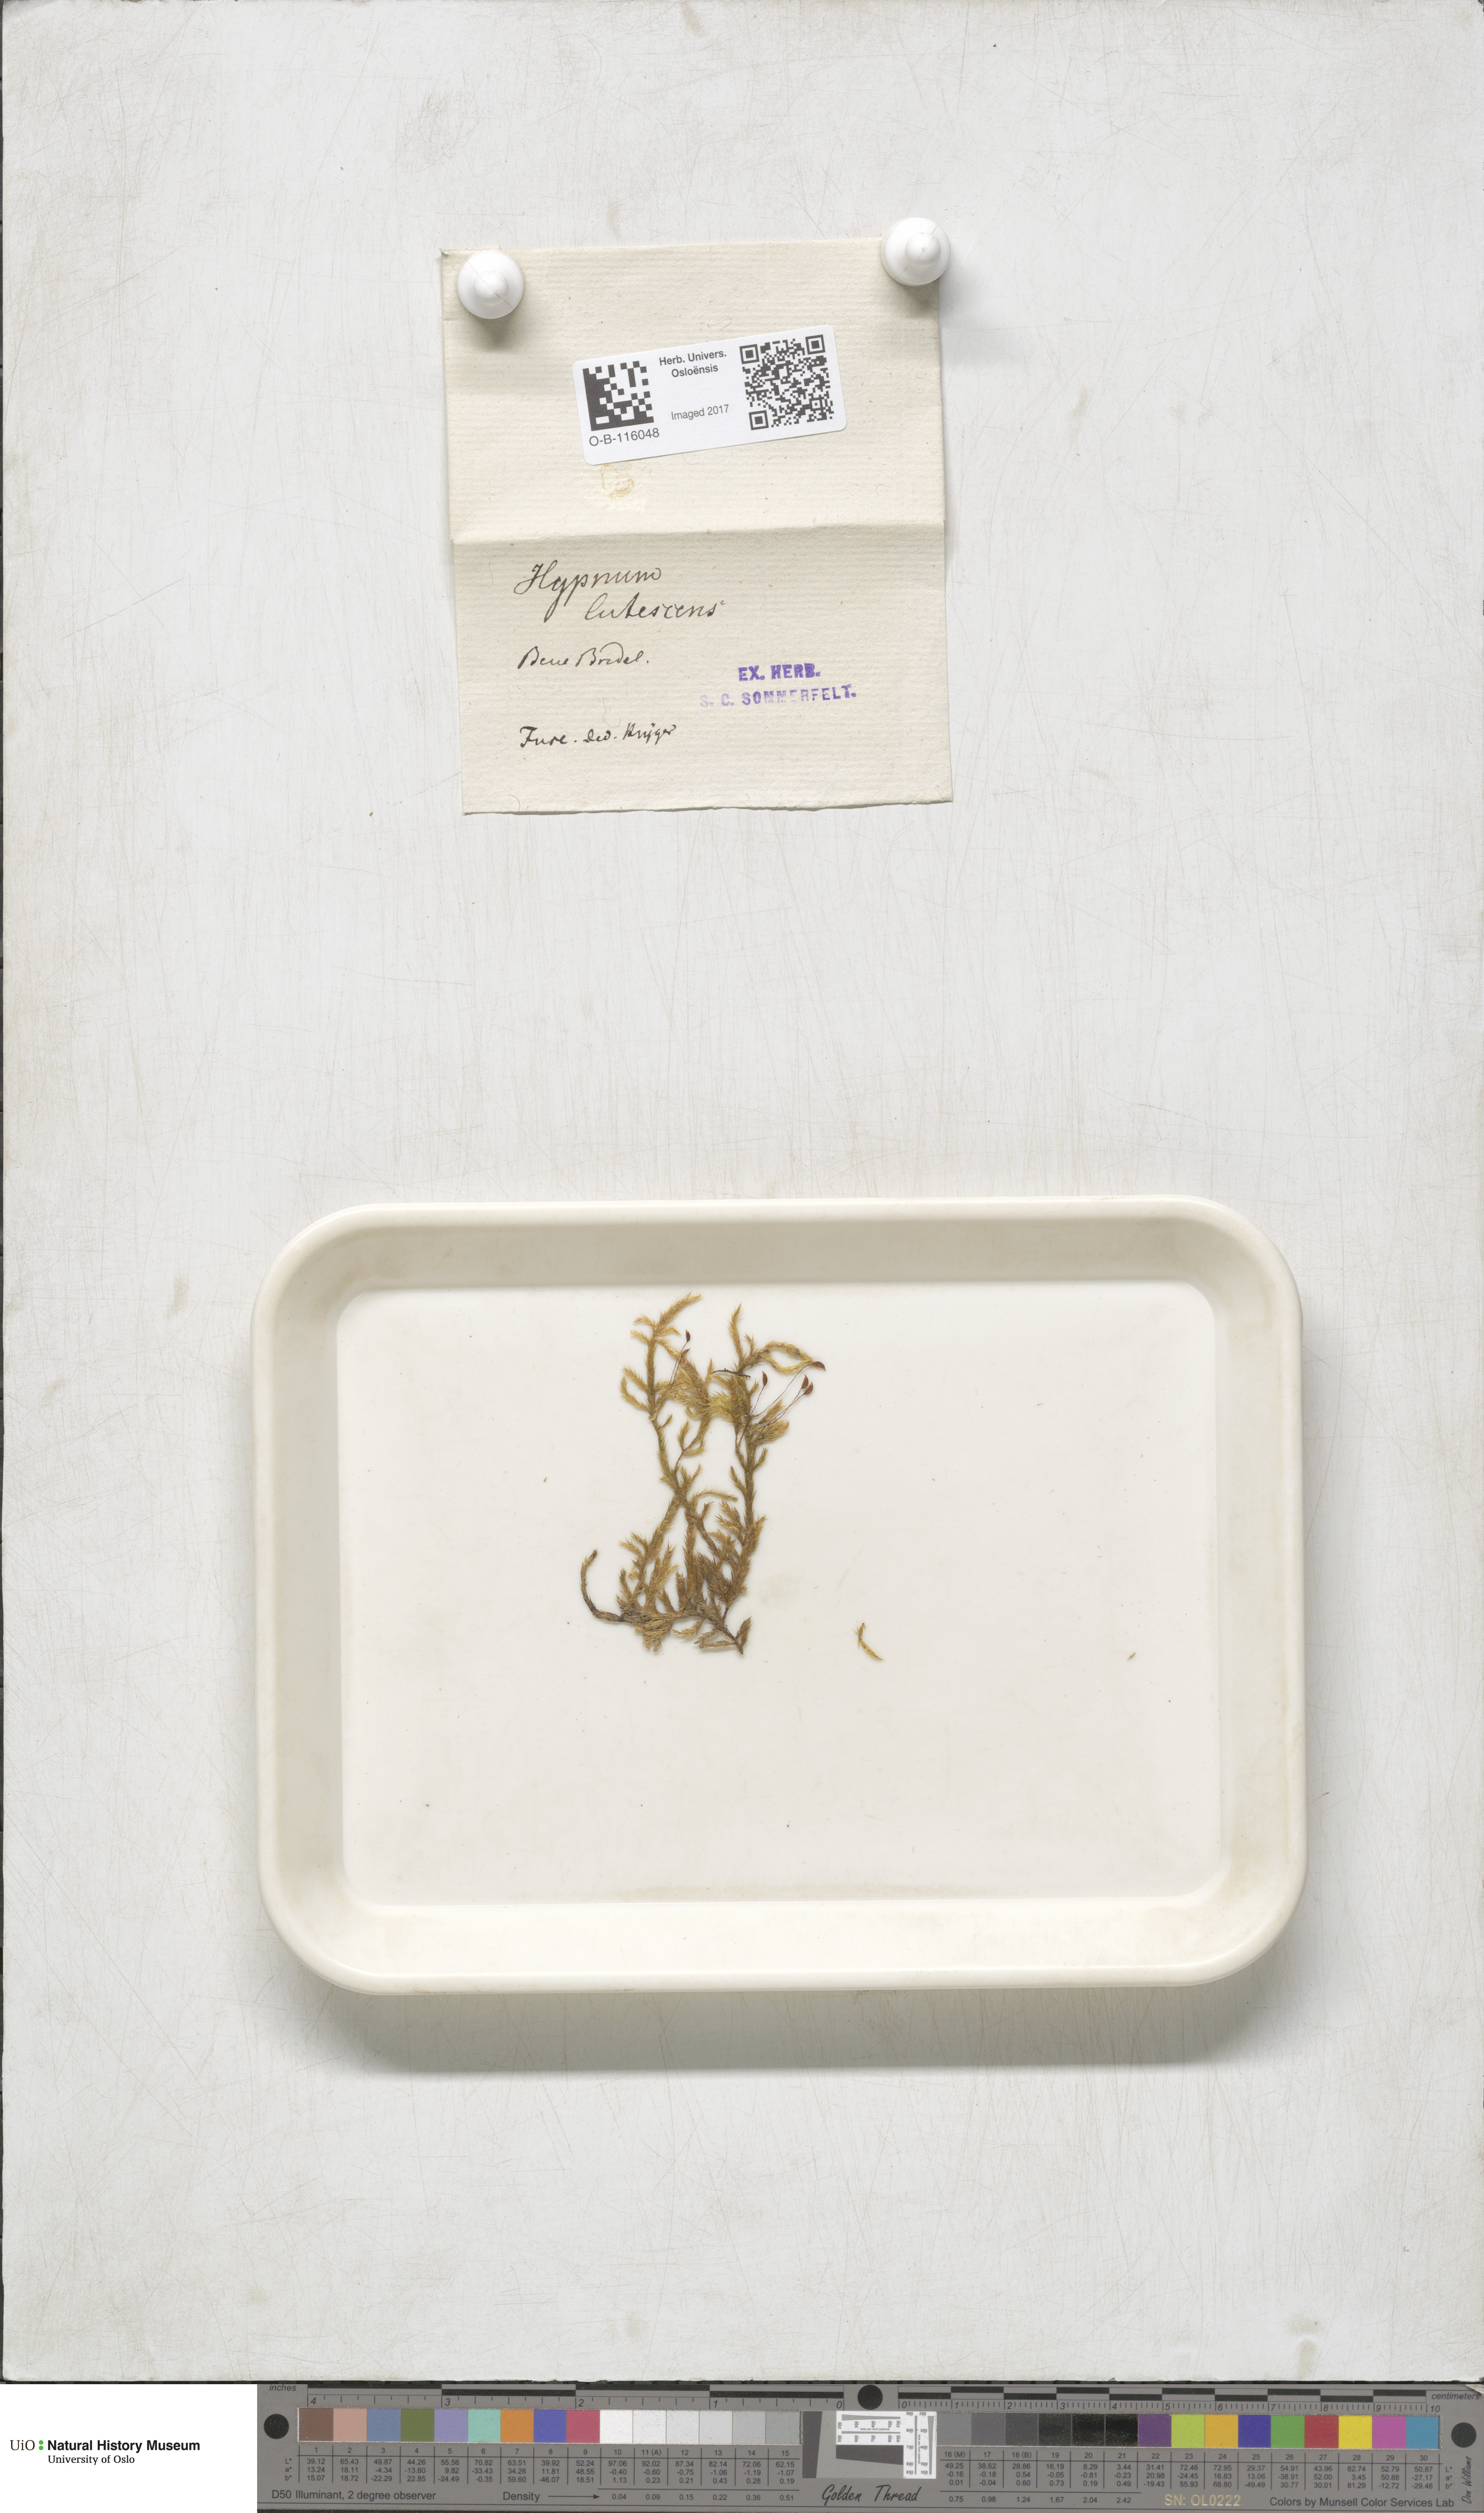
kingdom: Plantae
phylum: Bryophyta
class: Bryopsida
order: Hypnales
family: Brachytheciaceae
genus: Homalothecium
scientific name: Homalothecium lutescens
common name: Yellow feather-moss
